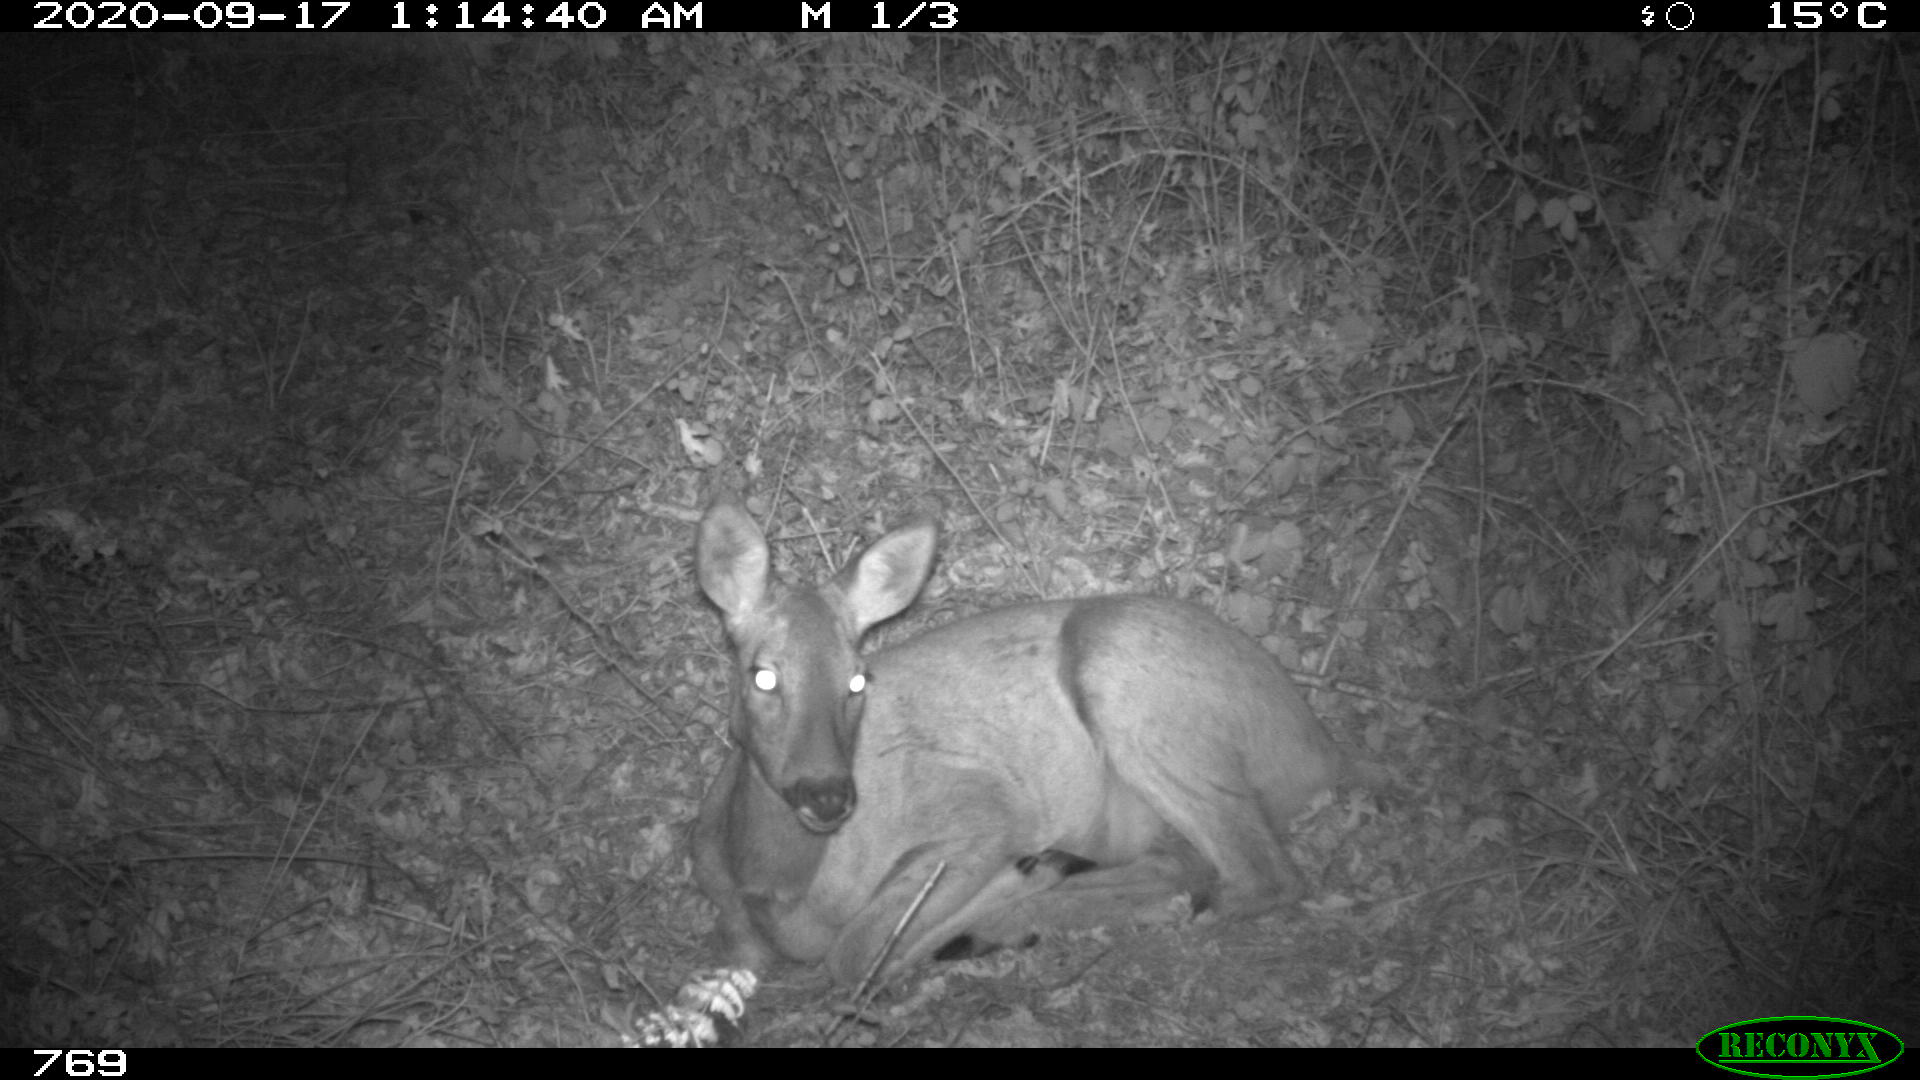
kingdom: Animalia
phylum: Chordata
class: Mammalia
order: Artiodactyla
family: Cervidae
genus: Capreolus
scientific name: Capreolus capreolus
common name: Western roe deer
